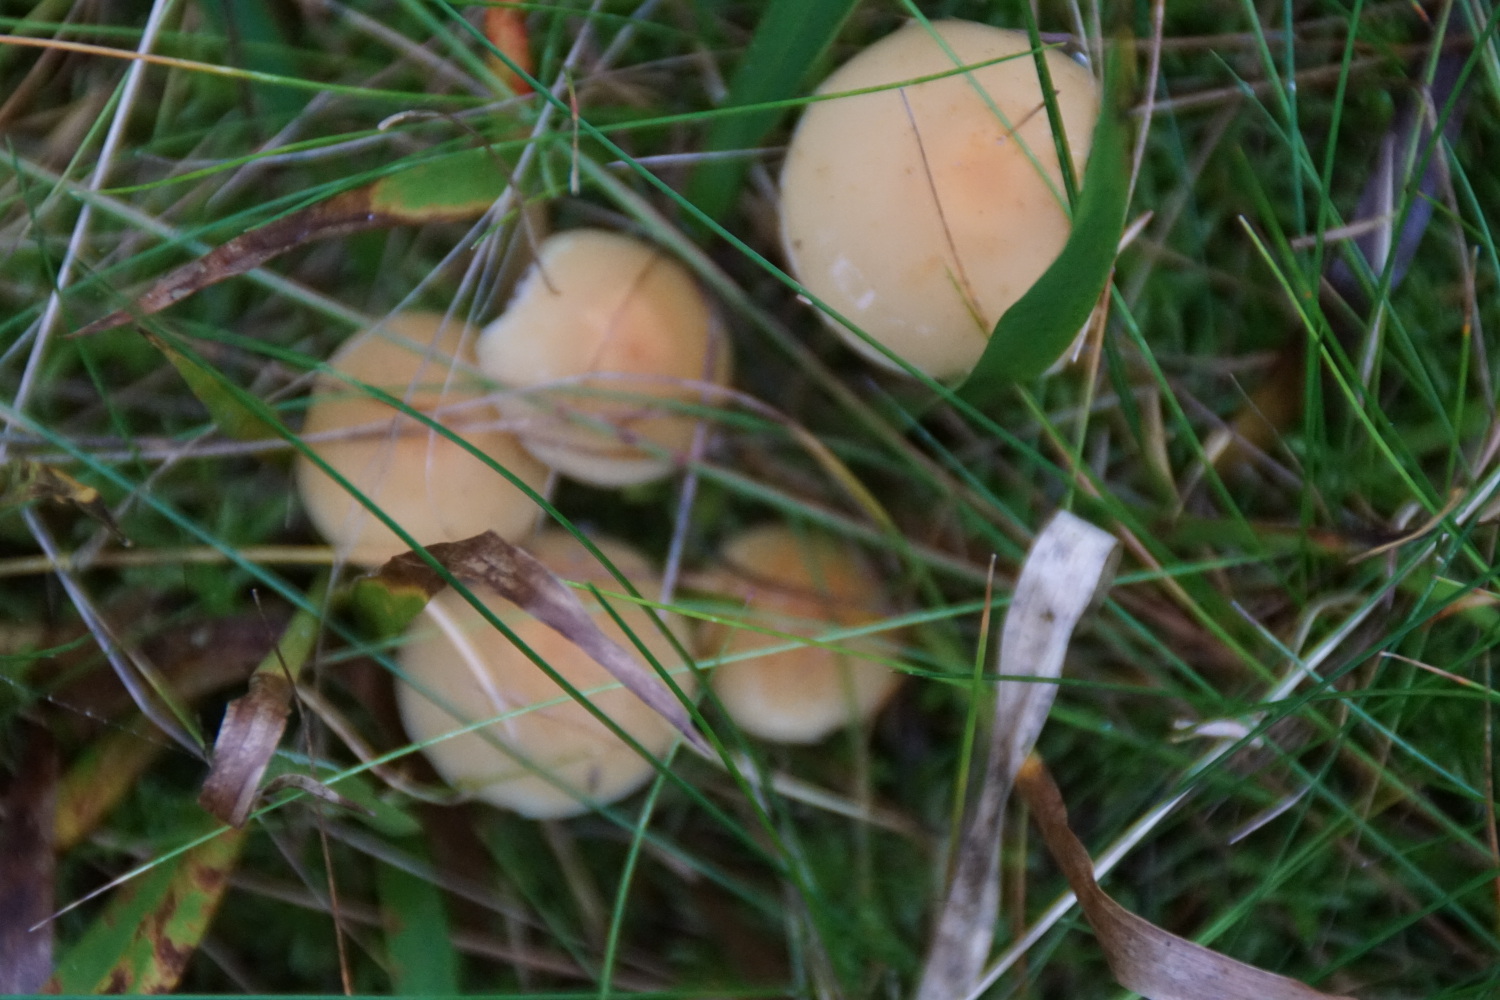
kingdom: Fungi
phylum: Basidiomycota
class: Agaricomycetes
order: Agaricales
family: Strophariaceae
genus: Hypholoma
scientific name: Hypholoma capnoides
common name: gran-svovlhat
